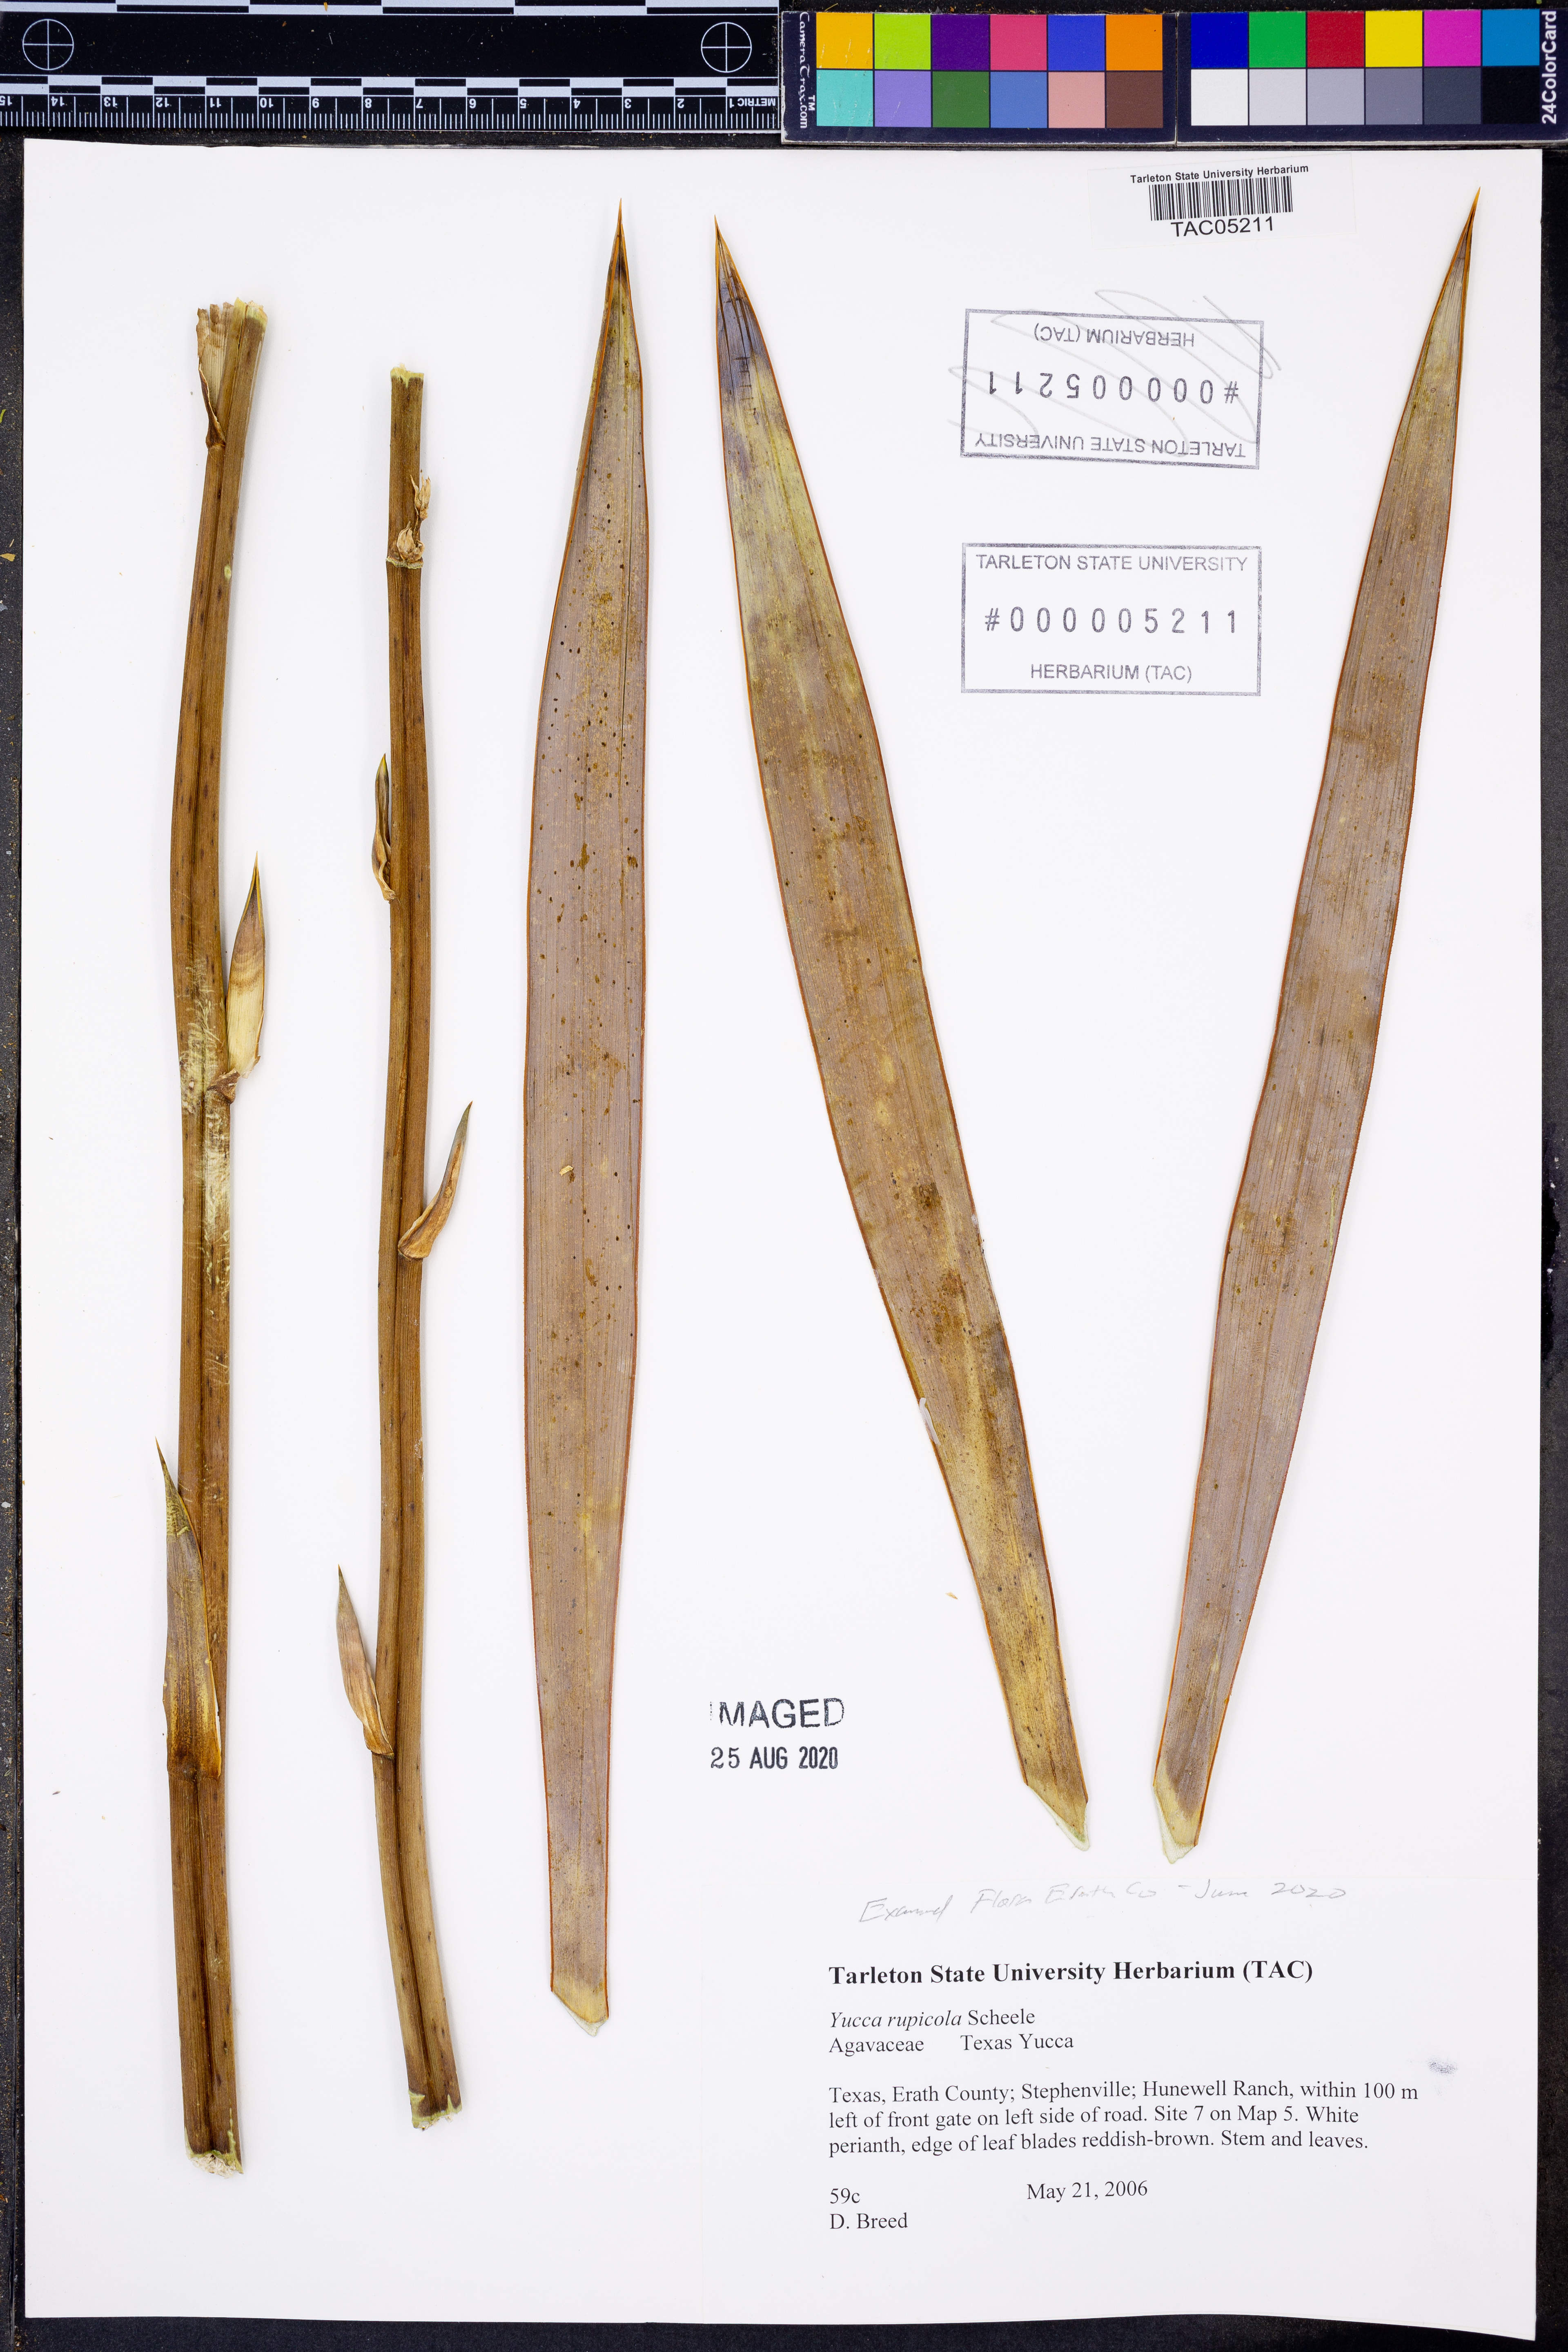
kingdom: Plantae
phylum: Tracheophyta
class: Liliopsida
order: Asparagales
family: Asparagaceae
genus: Yucca
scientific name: Yucca rupicola
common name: Twisted-leaf spanish-dagger
